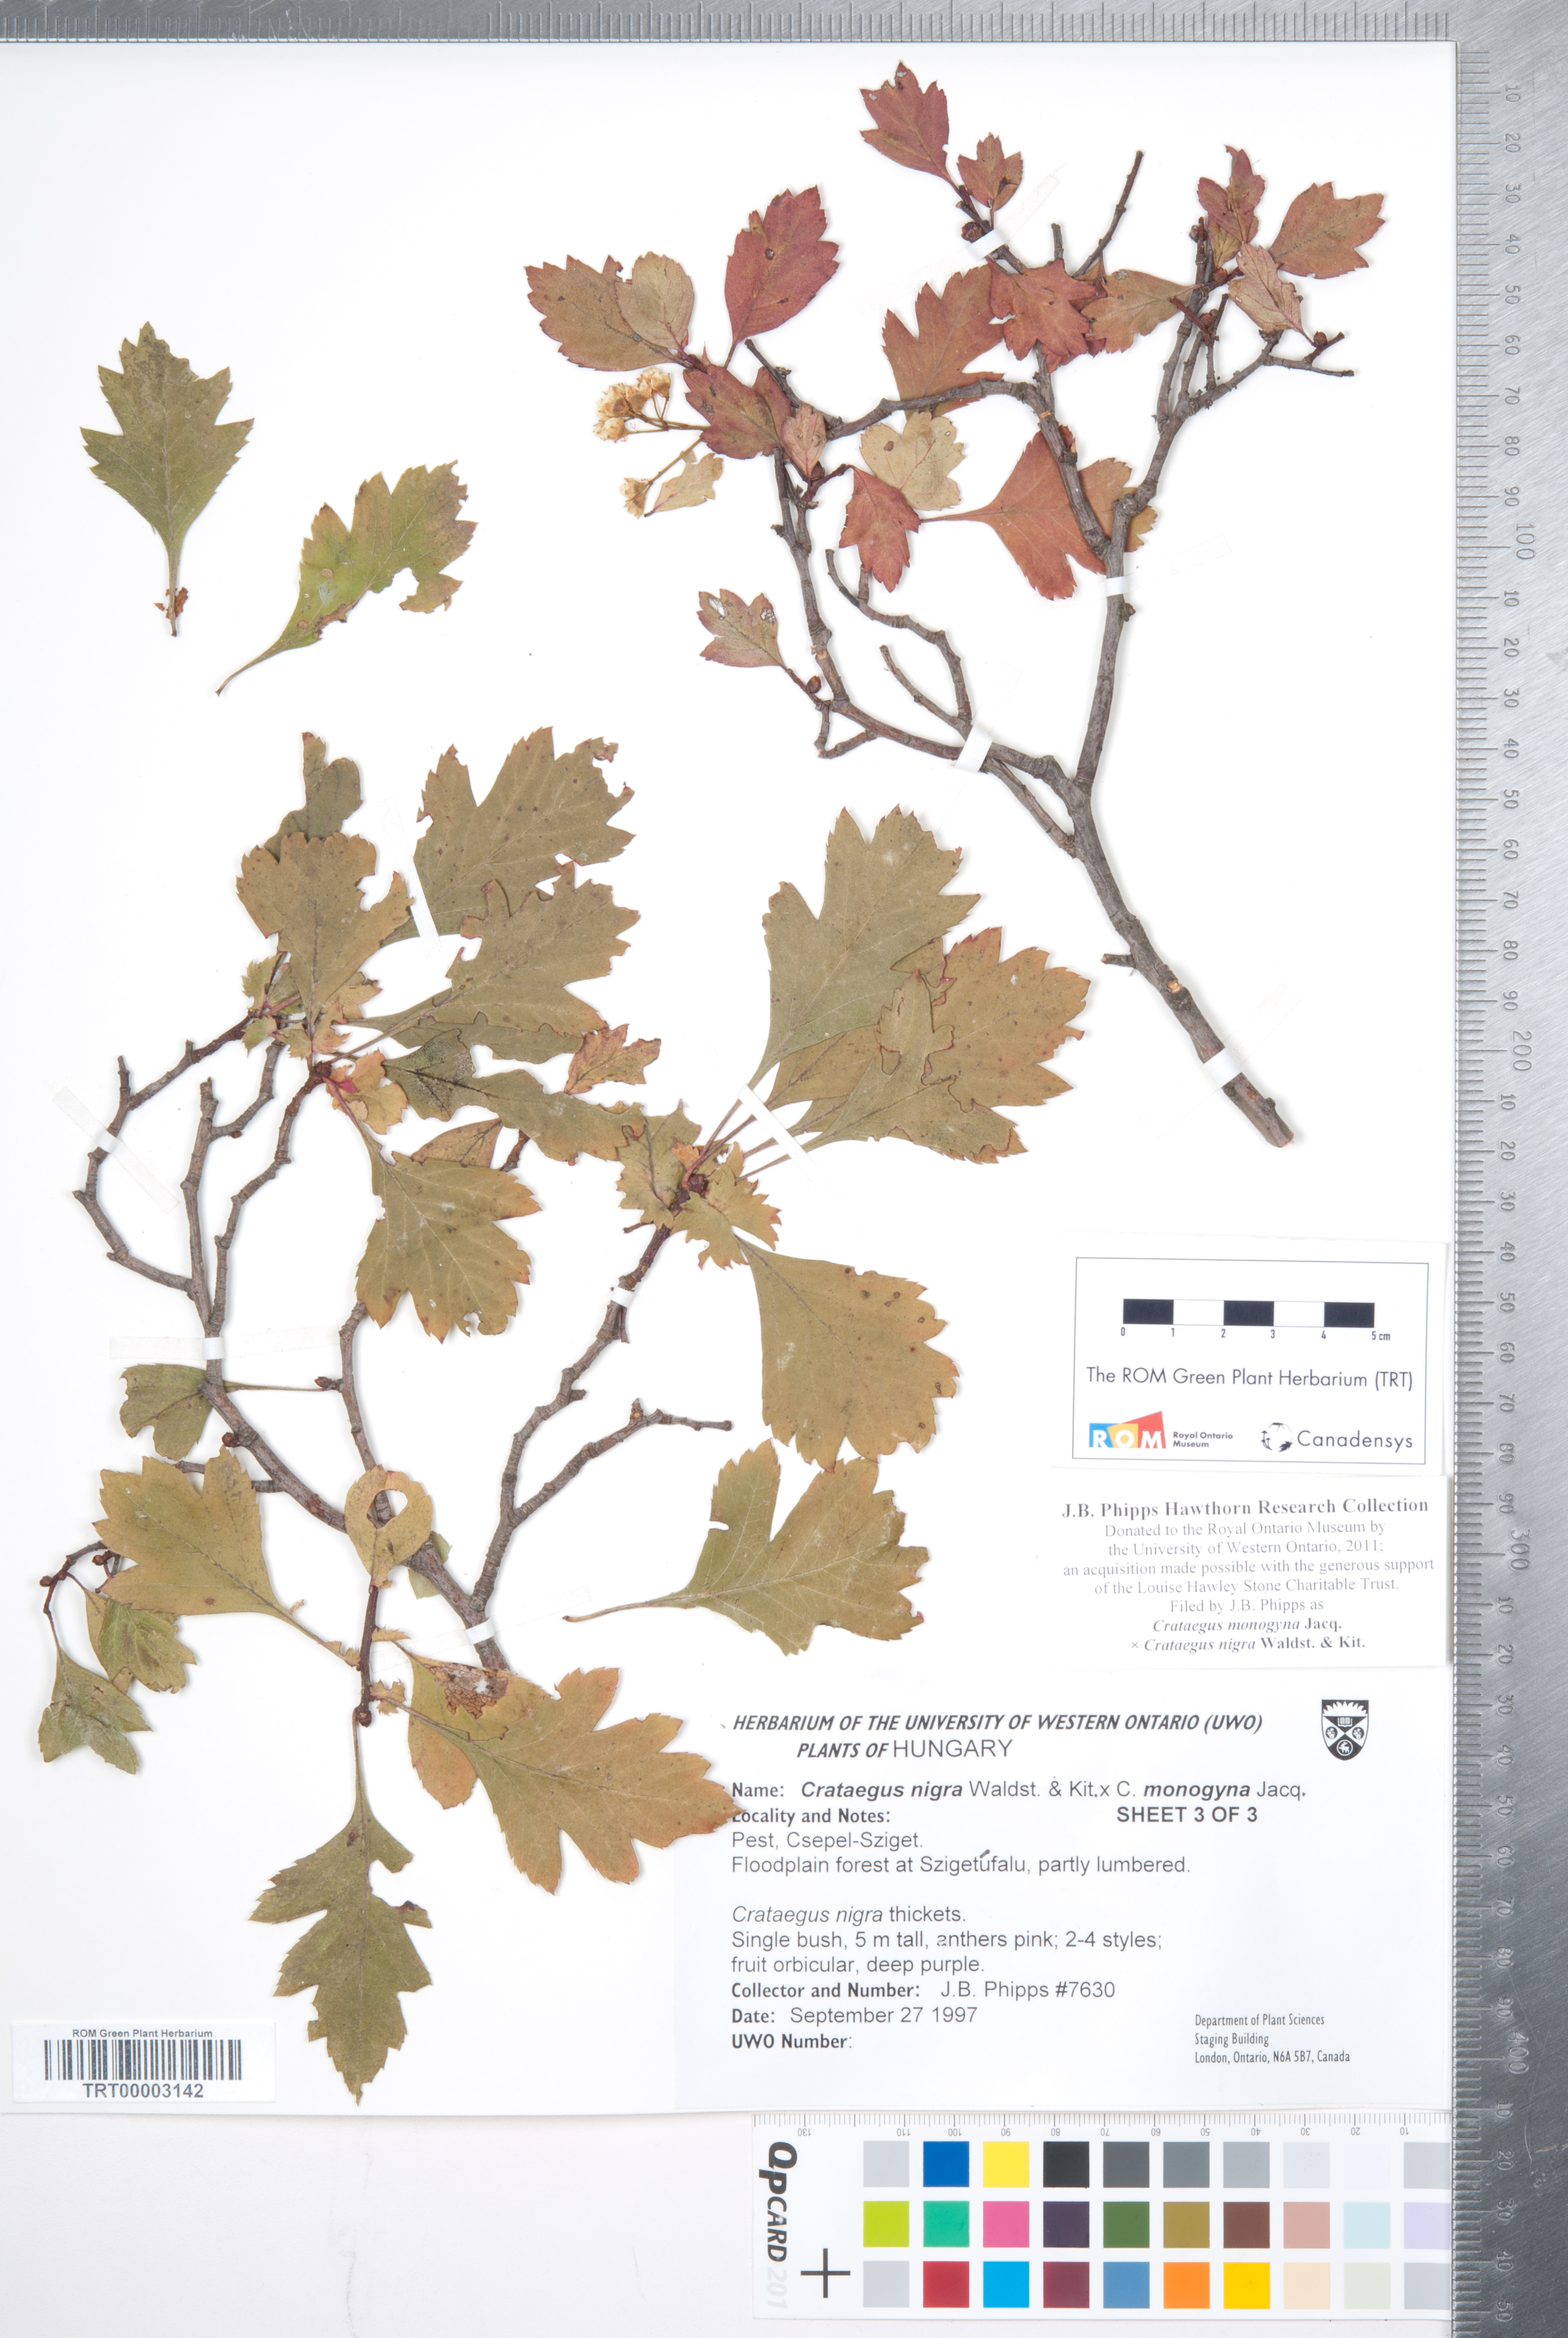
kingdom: Plantae
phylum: Tracheophyta
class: Magnoliopsida
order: Rosales
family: Rosaceae
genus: Crataegus
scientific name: Crataegus
